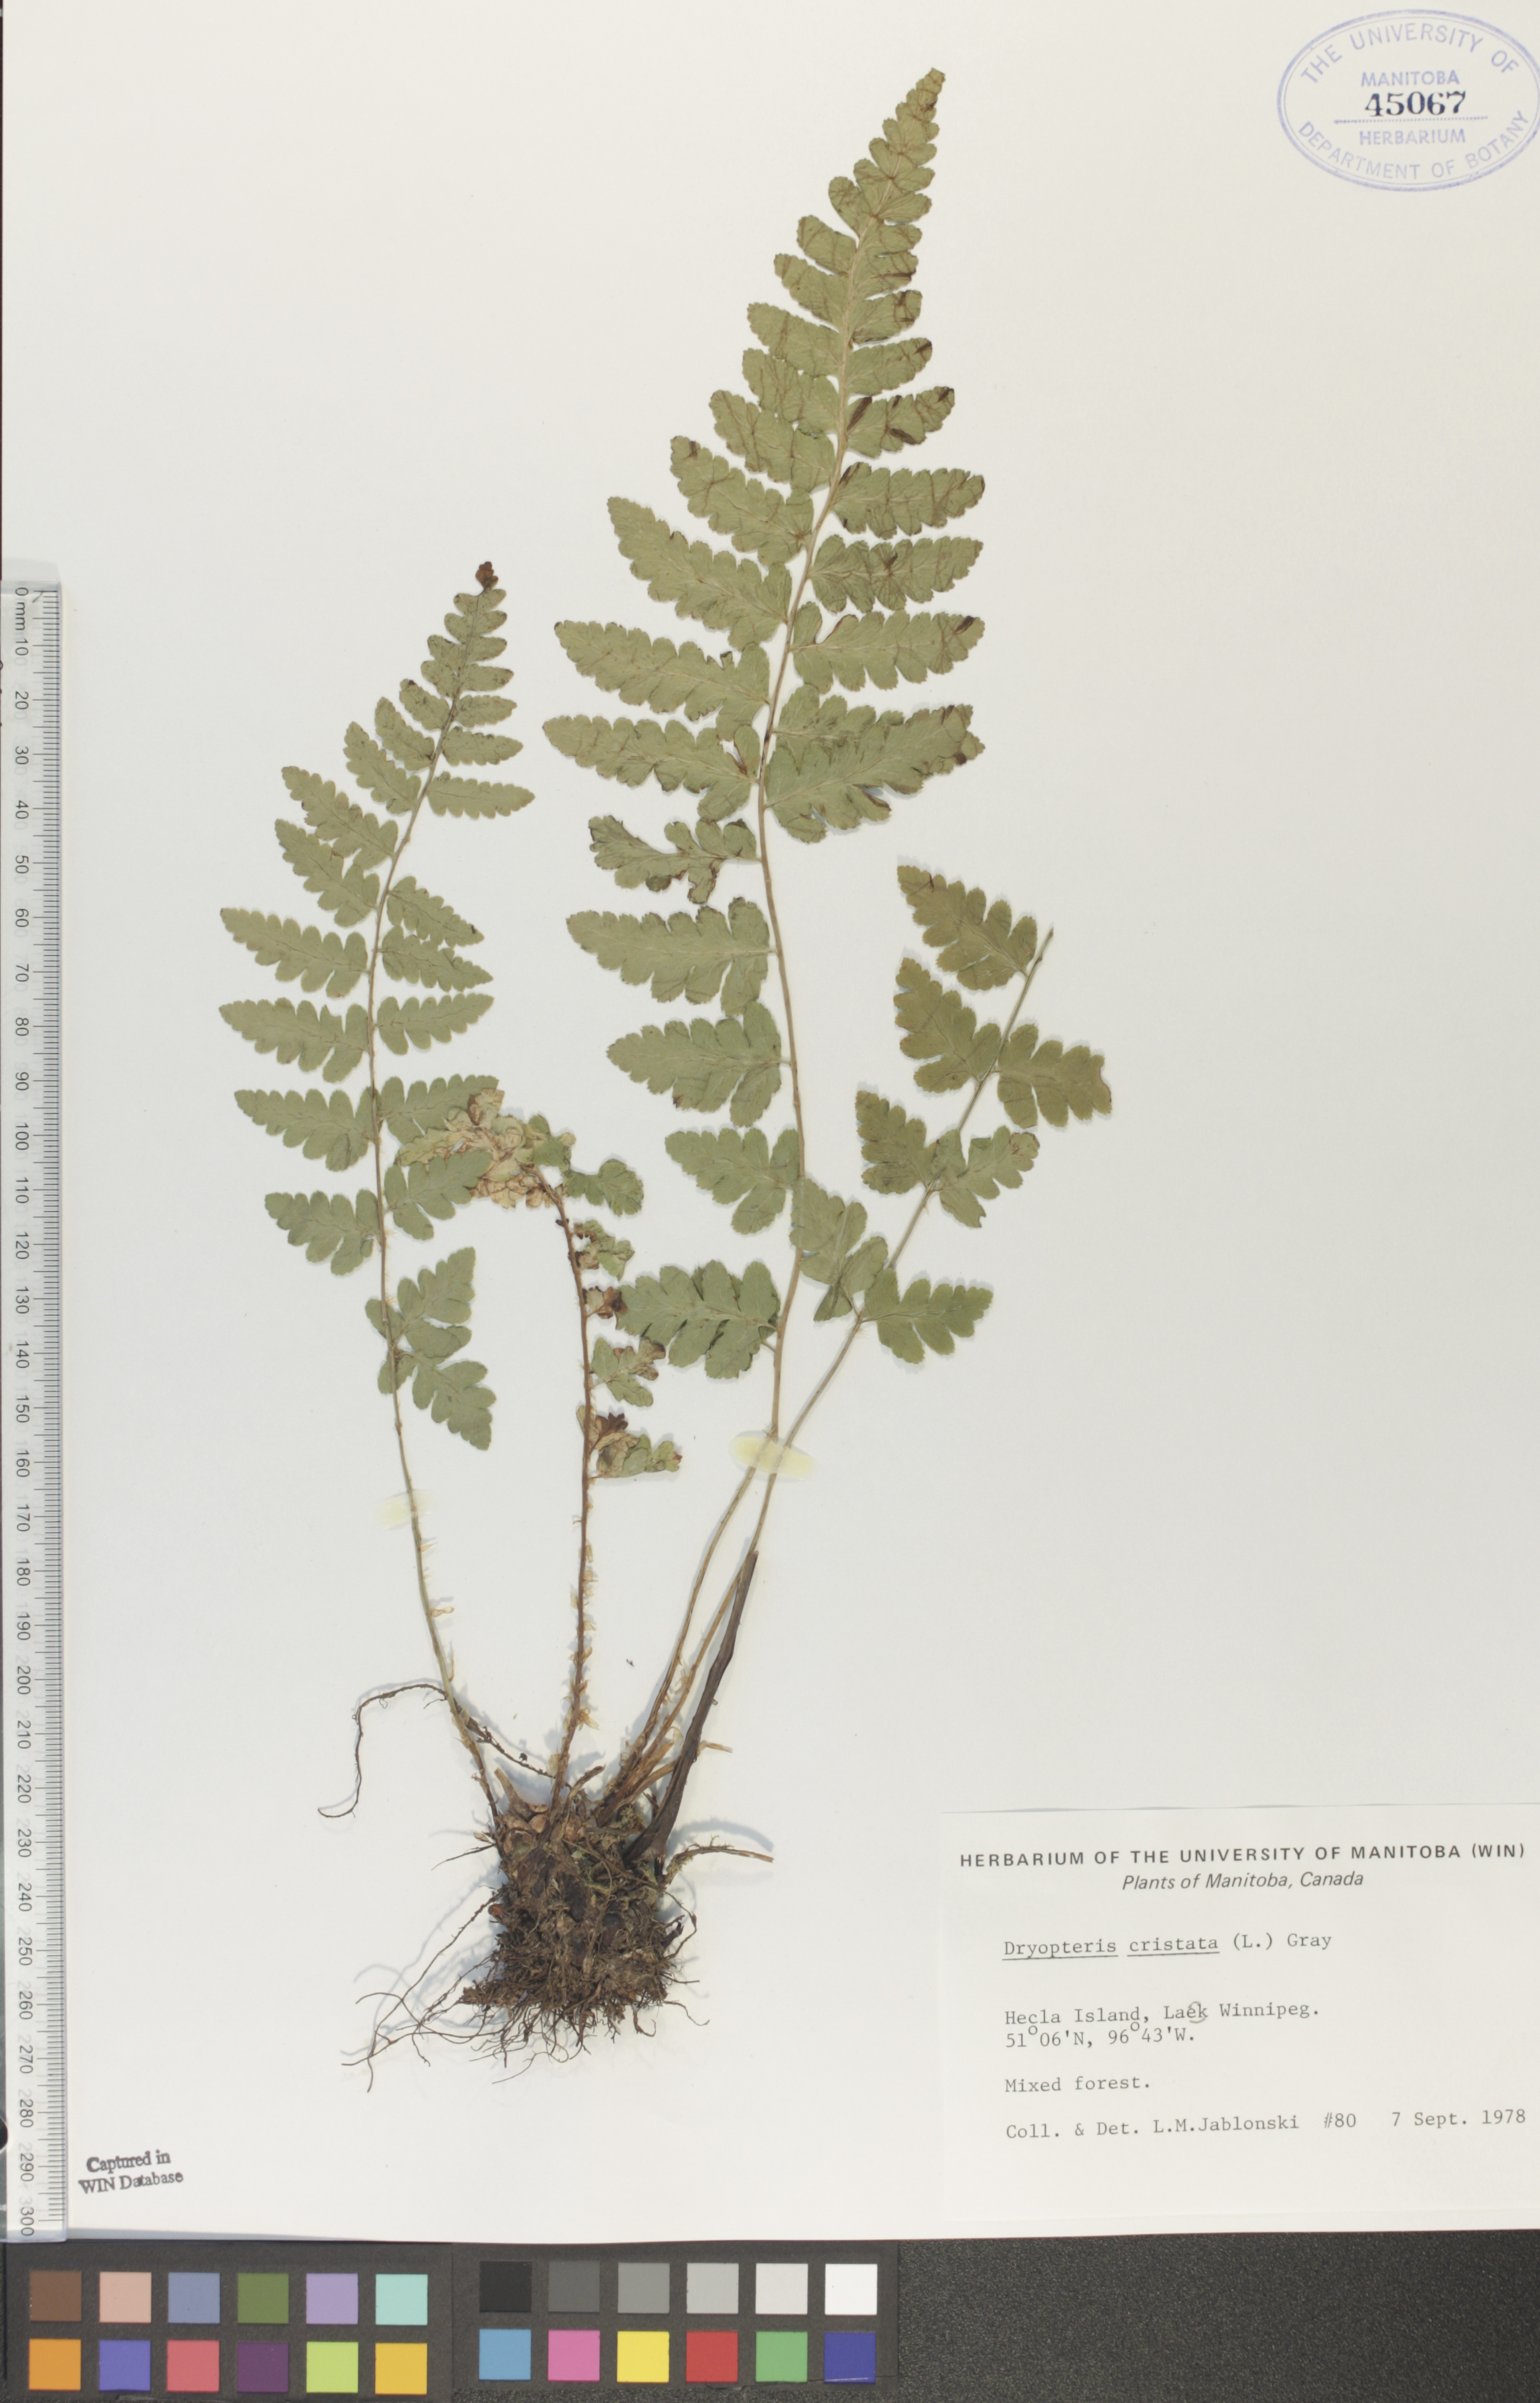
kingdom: Plantae
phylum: Tracheophyta
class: Polypodiopsida
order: Polypodiales
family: Dryopteridaceae
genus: Dryopteris
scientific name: Dryopteris cristata
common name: Crested wood fern
